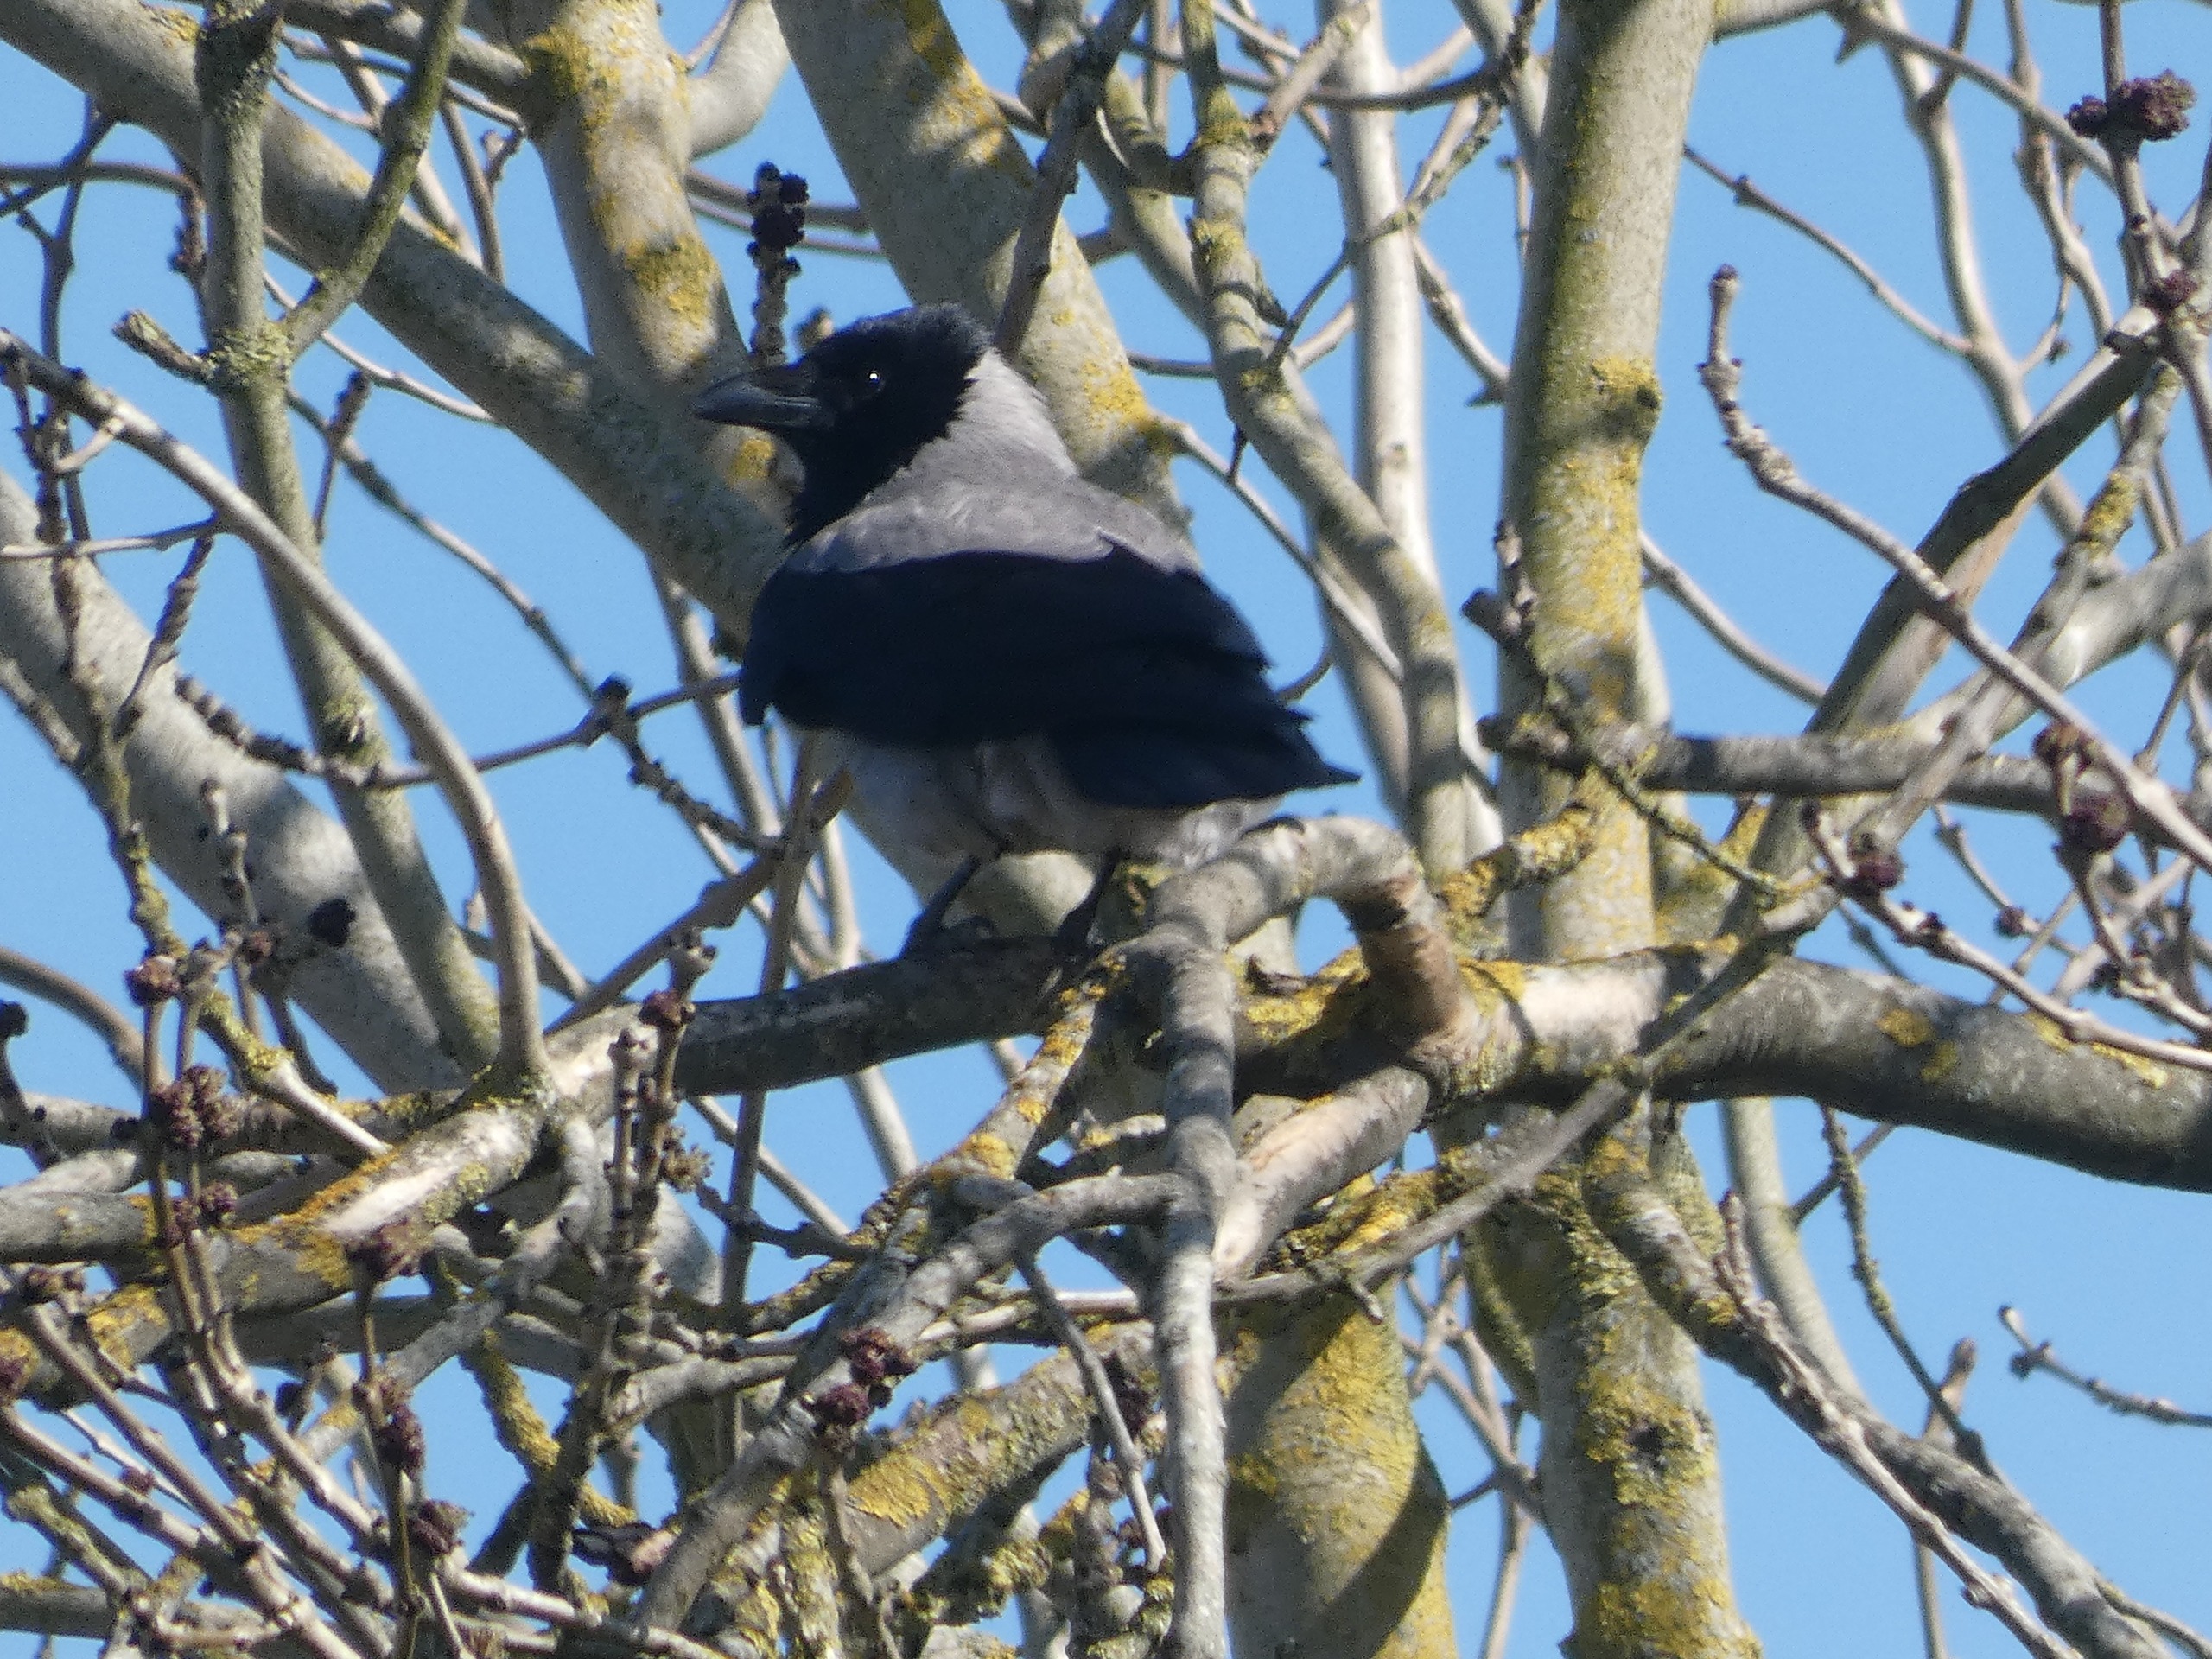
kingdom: Animalia
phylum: Chordata
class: Aves
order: Passeriformes
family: Corvidae
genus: Corvus
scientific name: Corvus cornix
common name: Gråkrage
